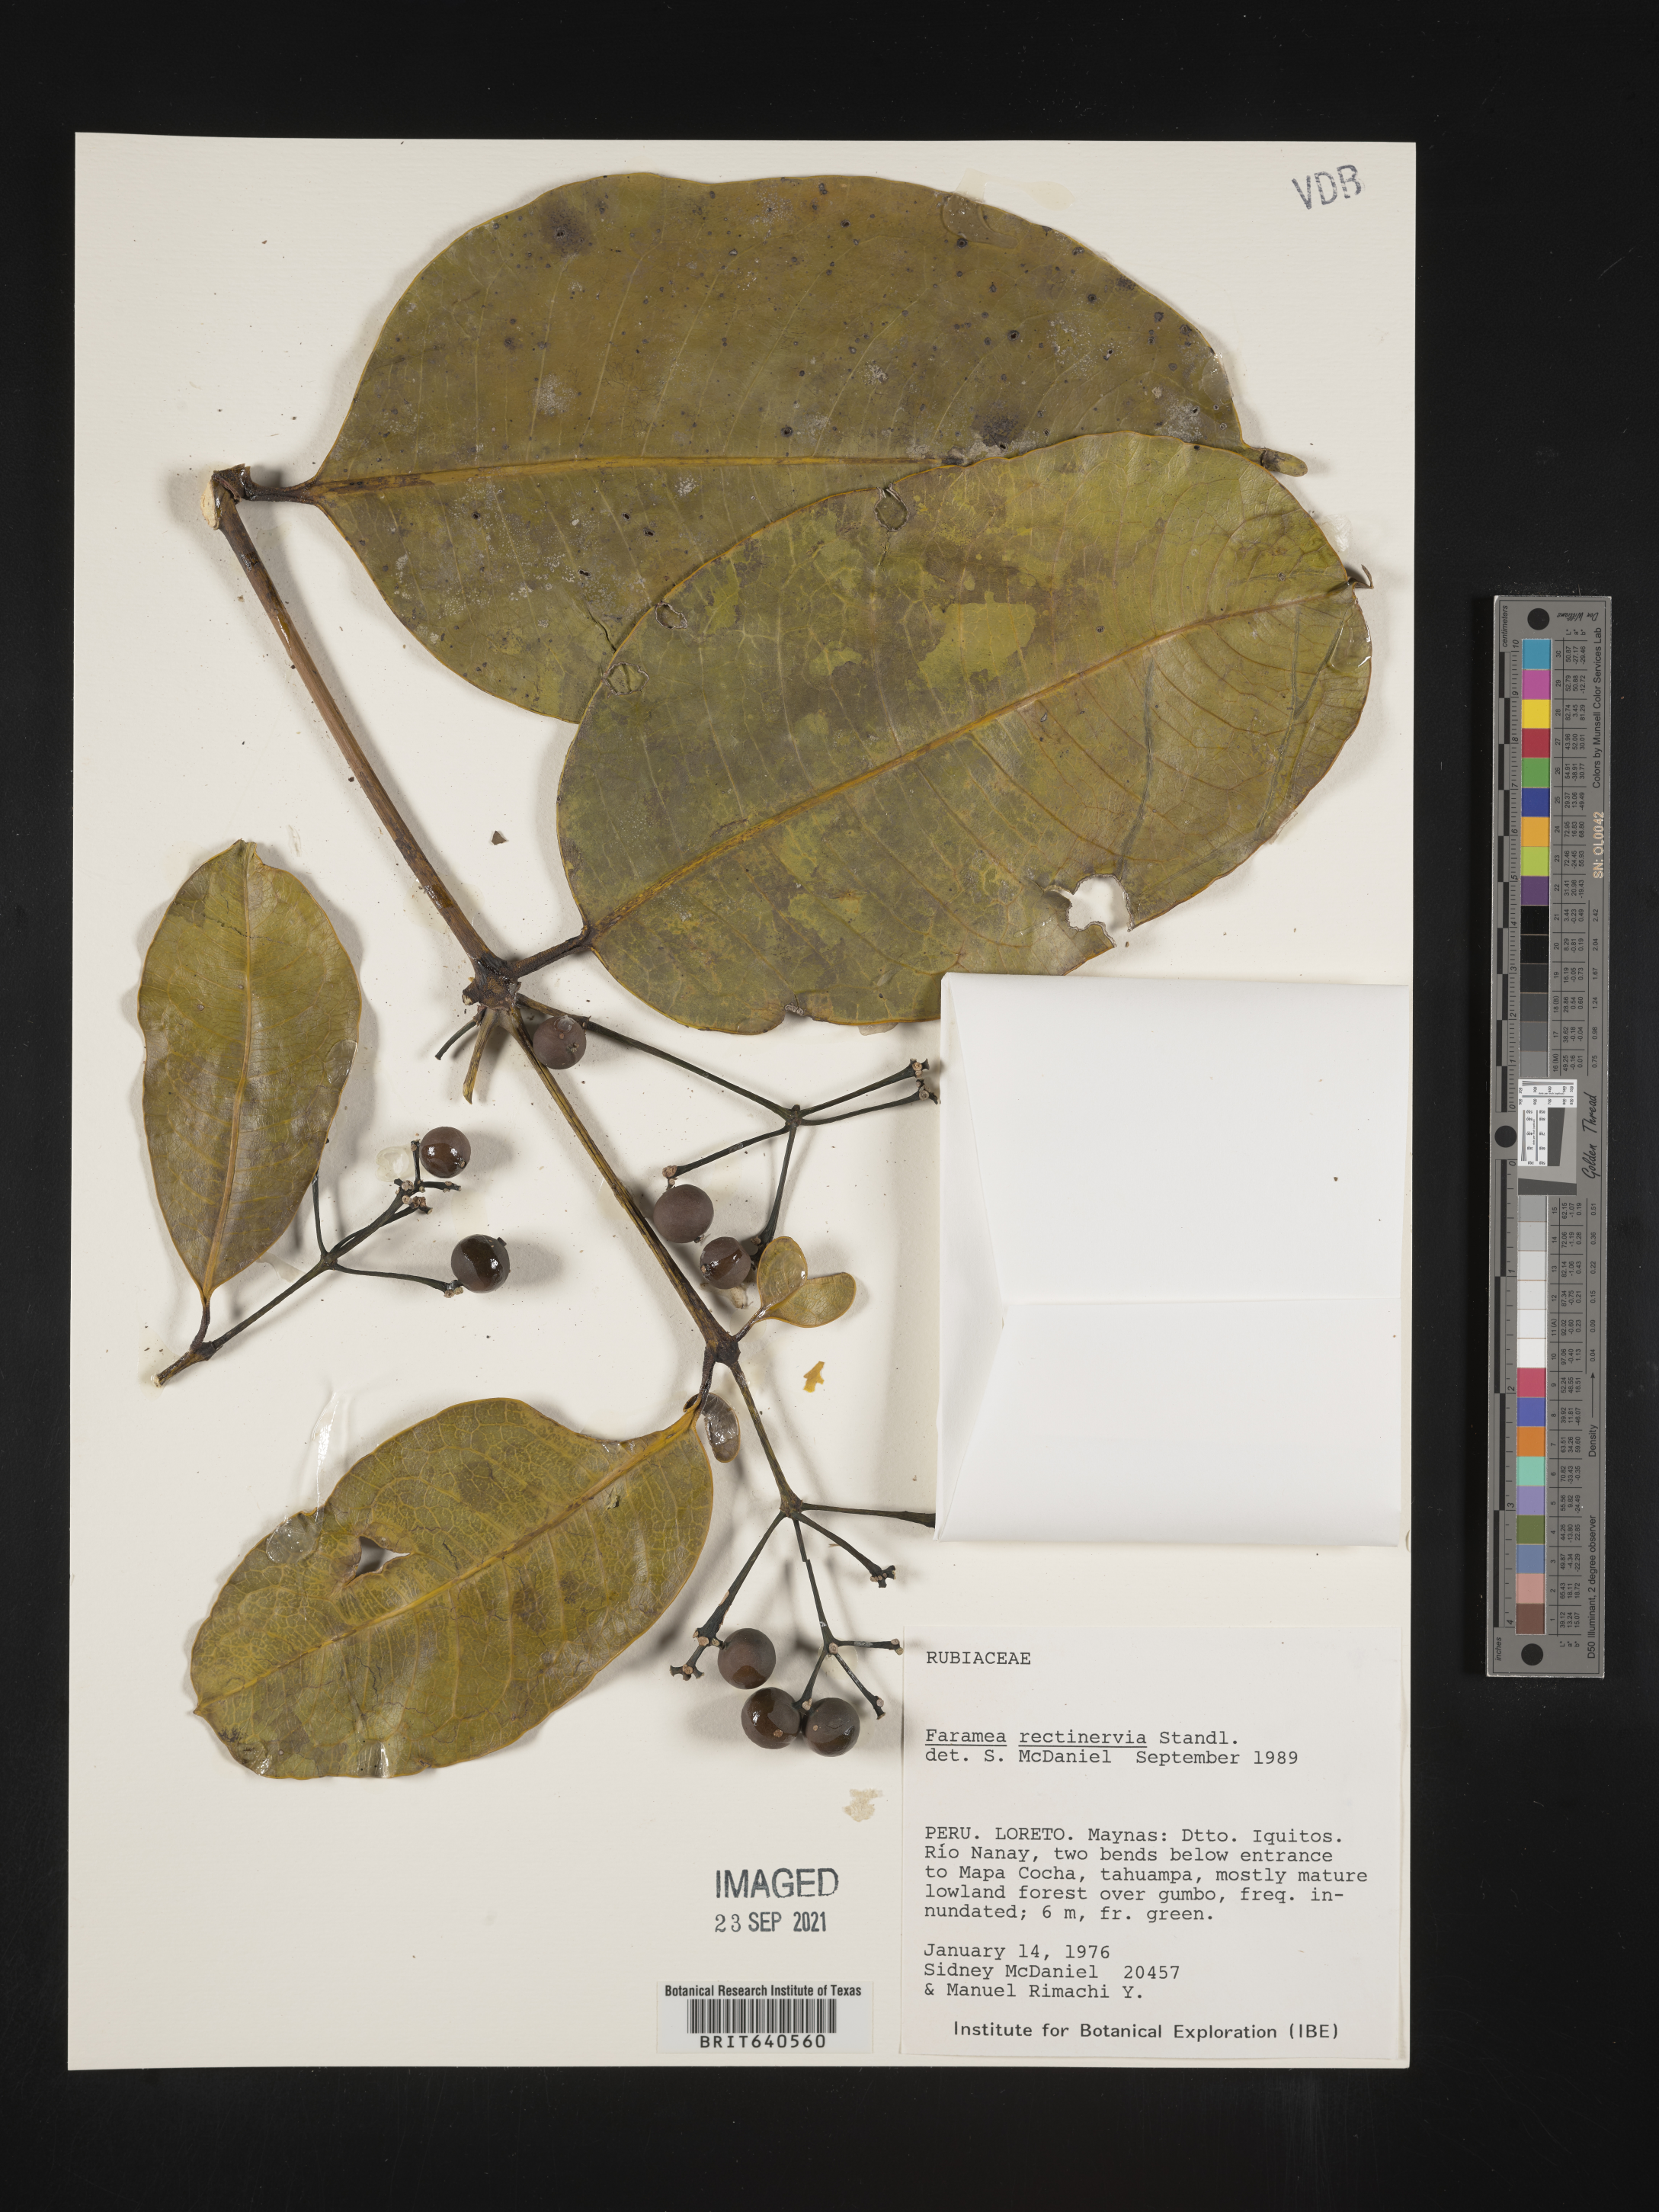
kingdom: Plantae
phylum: Tracheophyta
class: Magnoliopsida
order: Gentianales
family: Rubiaceae
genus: Faramea
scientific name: Faramea
